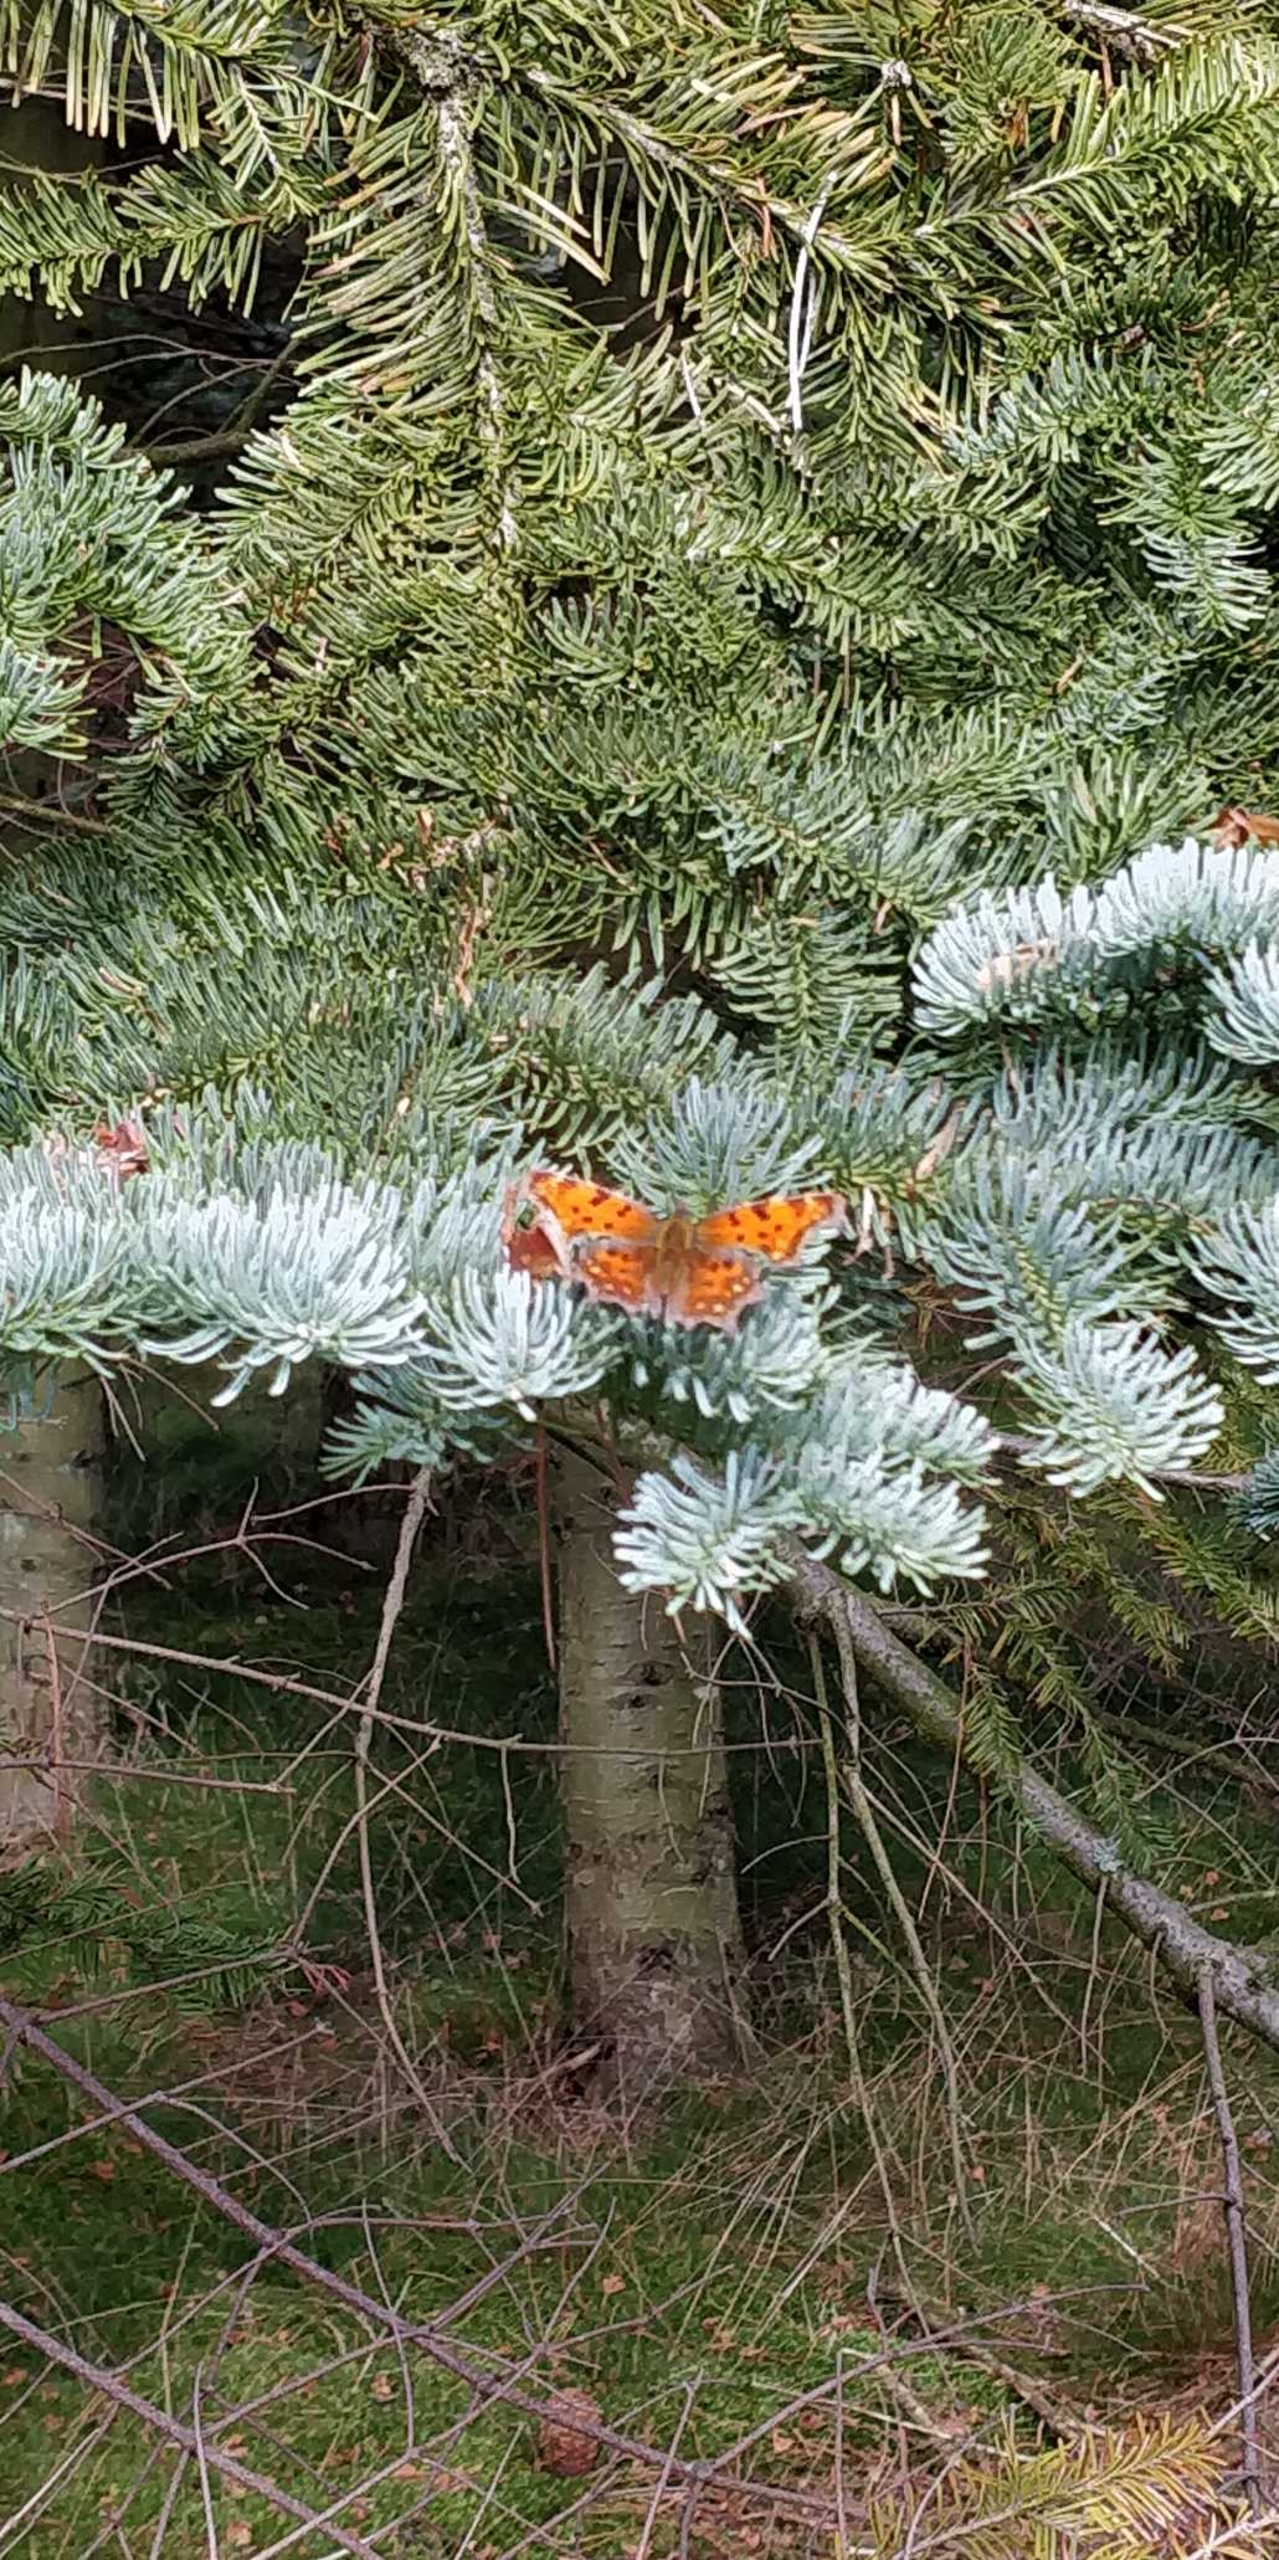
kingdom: Animalia
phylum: Arthropoda
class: Insecta
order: Lepidoptera
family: Nymphalidae
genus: Polygonia
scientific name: Polygonia c-album
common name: Det hvide C
